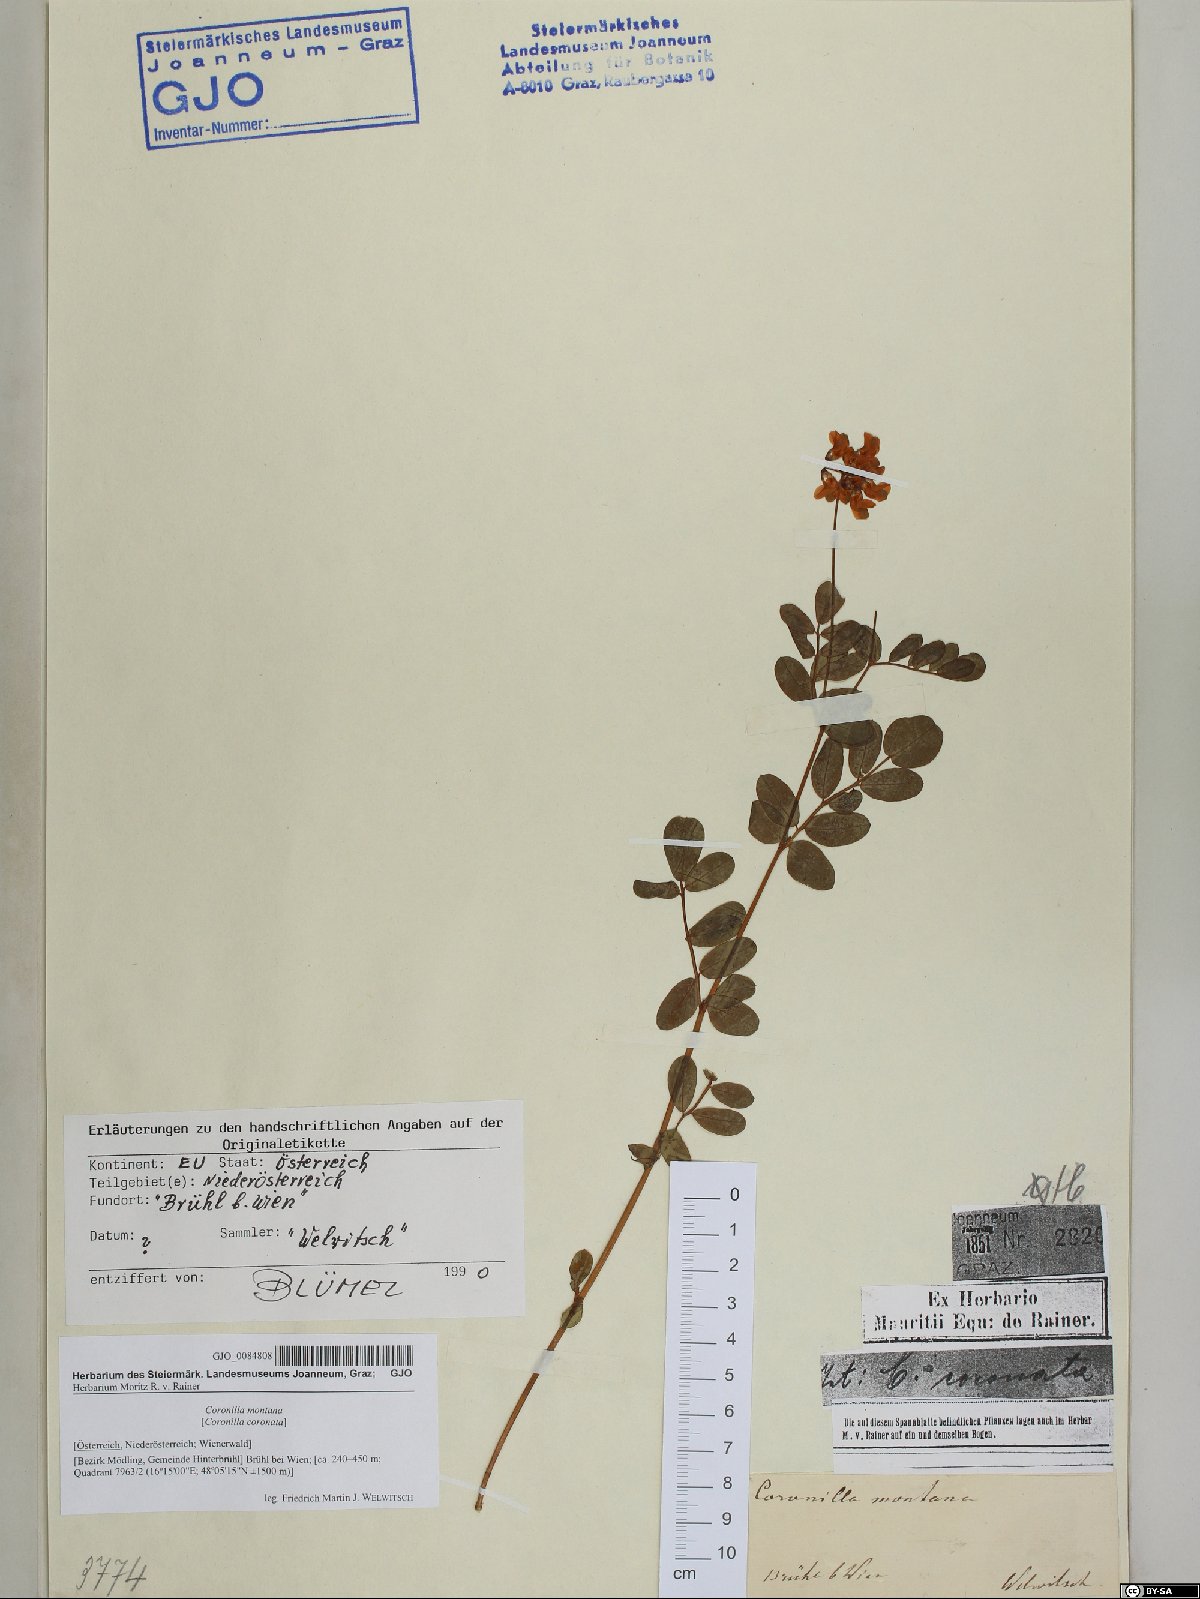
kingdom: Plantae
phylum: Tracheophyta
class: Magnoliopsida
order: Fabales
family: Fabaceae
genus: Coronilla
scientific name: Coronilla coronata
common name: Scorpion-vetch
